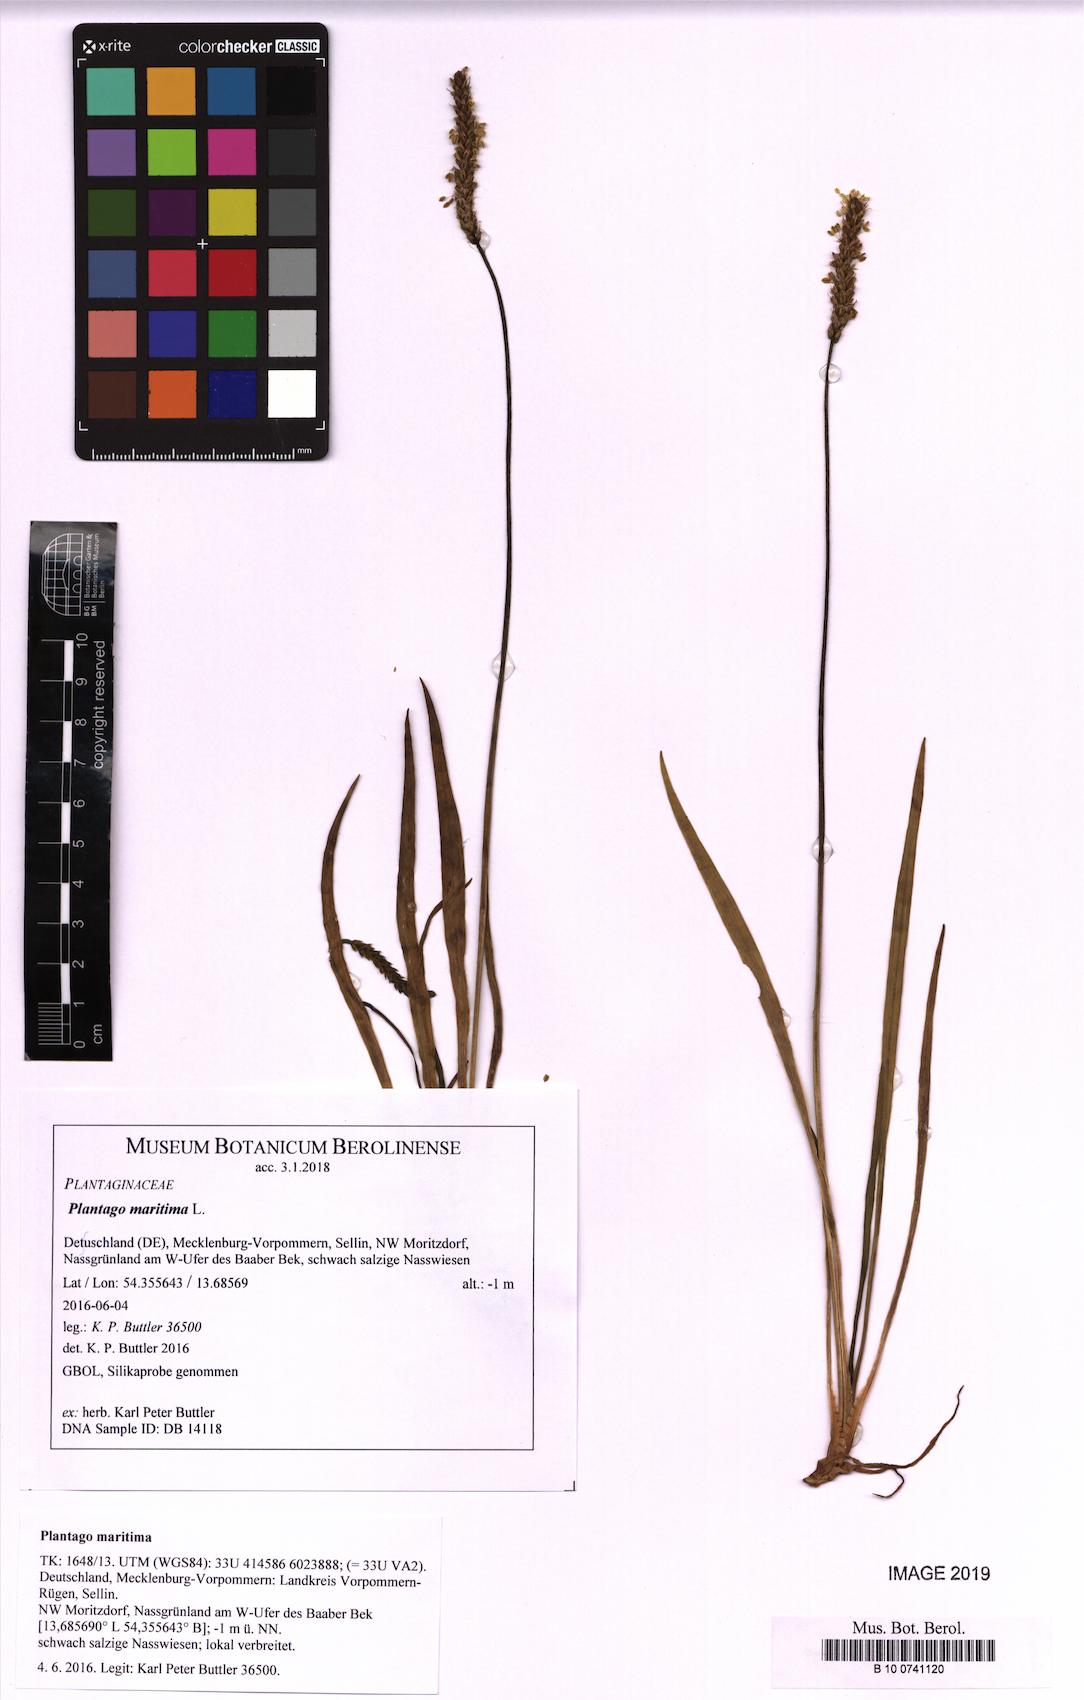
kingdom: Plantae
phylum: Tracheophyta
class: Magnoliopsida
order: Lamiales
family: Plantaginaceae
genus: Plantago
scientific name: Plantago maritima
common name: Sea plantain
